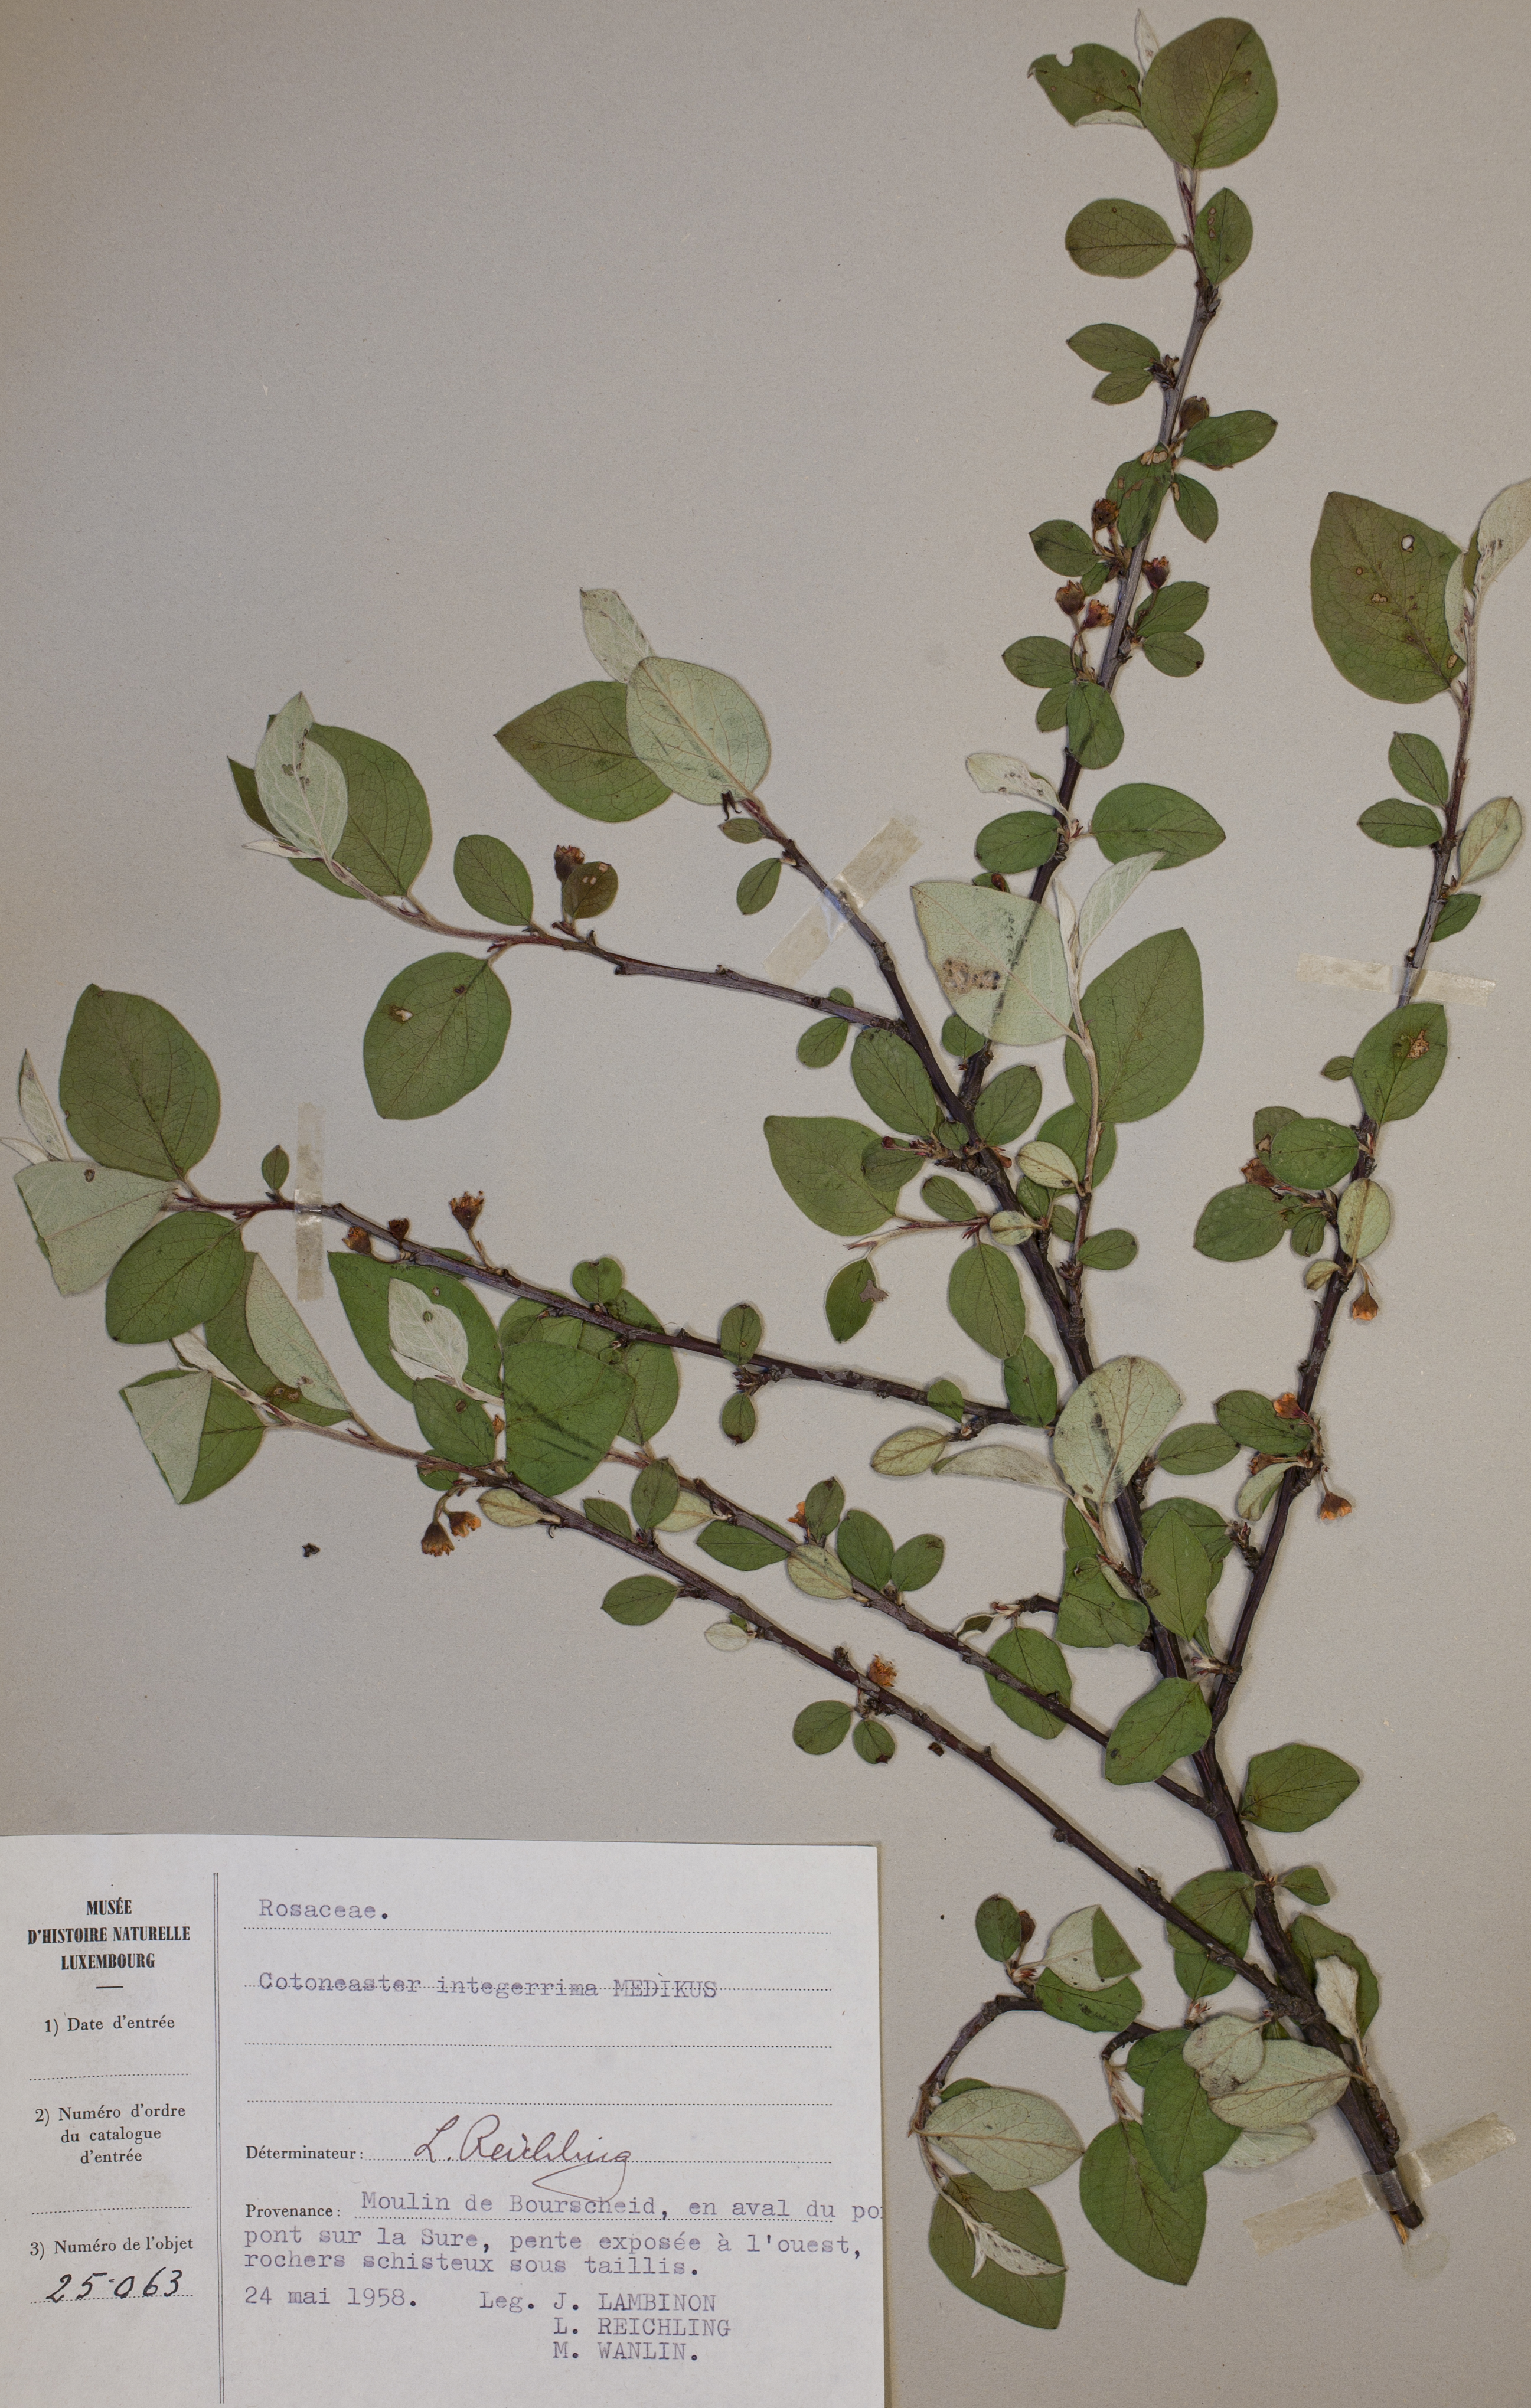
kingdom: Plantae
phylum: Tracheophyta
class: Magnoliopsida
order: Rosales
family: Rosaceae
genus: Cotoneaster
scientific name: Cotoneaster integerrimus
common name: Wild cotoneaster
